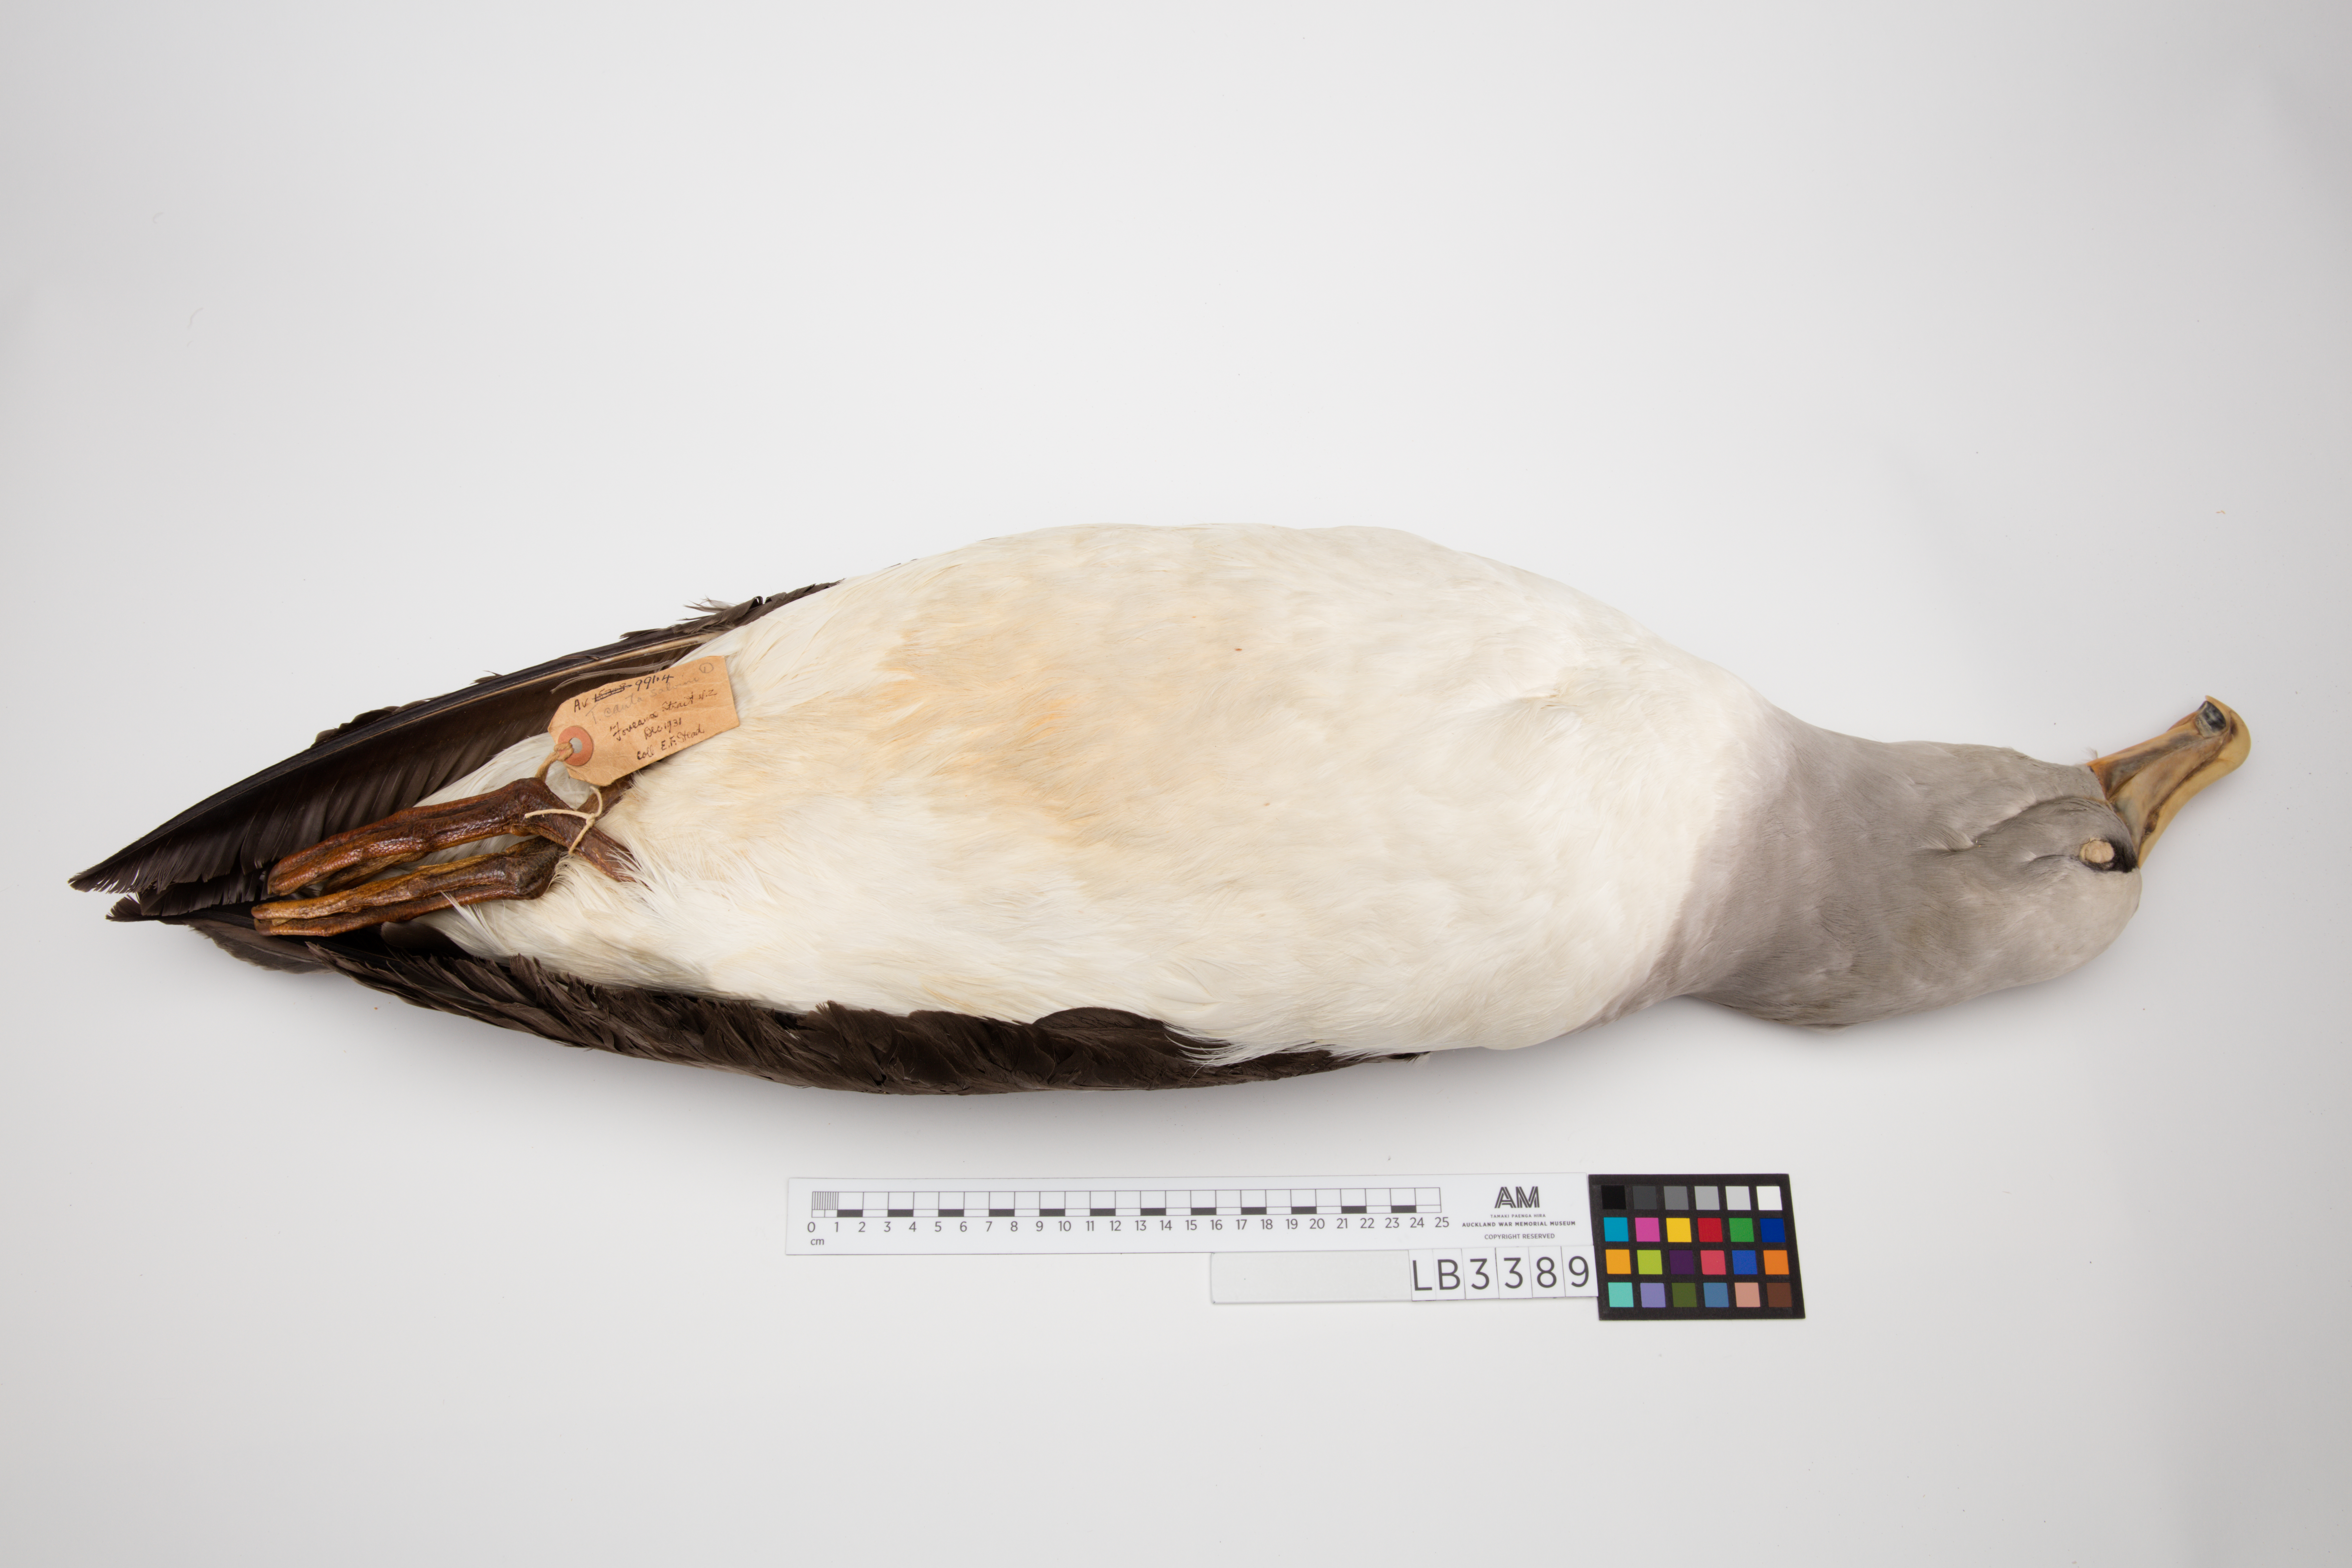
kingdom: Animalia
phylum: Chordata
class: Aves
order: Procellariiformes
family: Diomedeidae
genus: Thalassarche
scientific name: Thalassarche cauta
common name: Shy albatross
